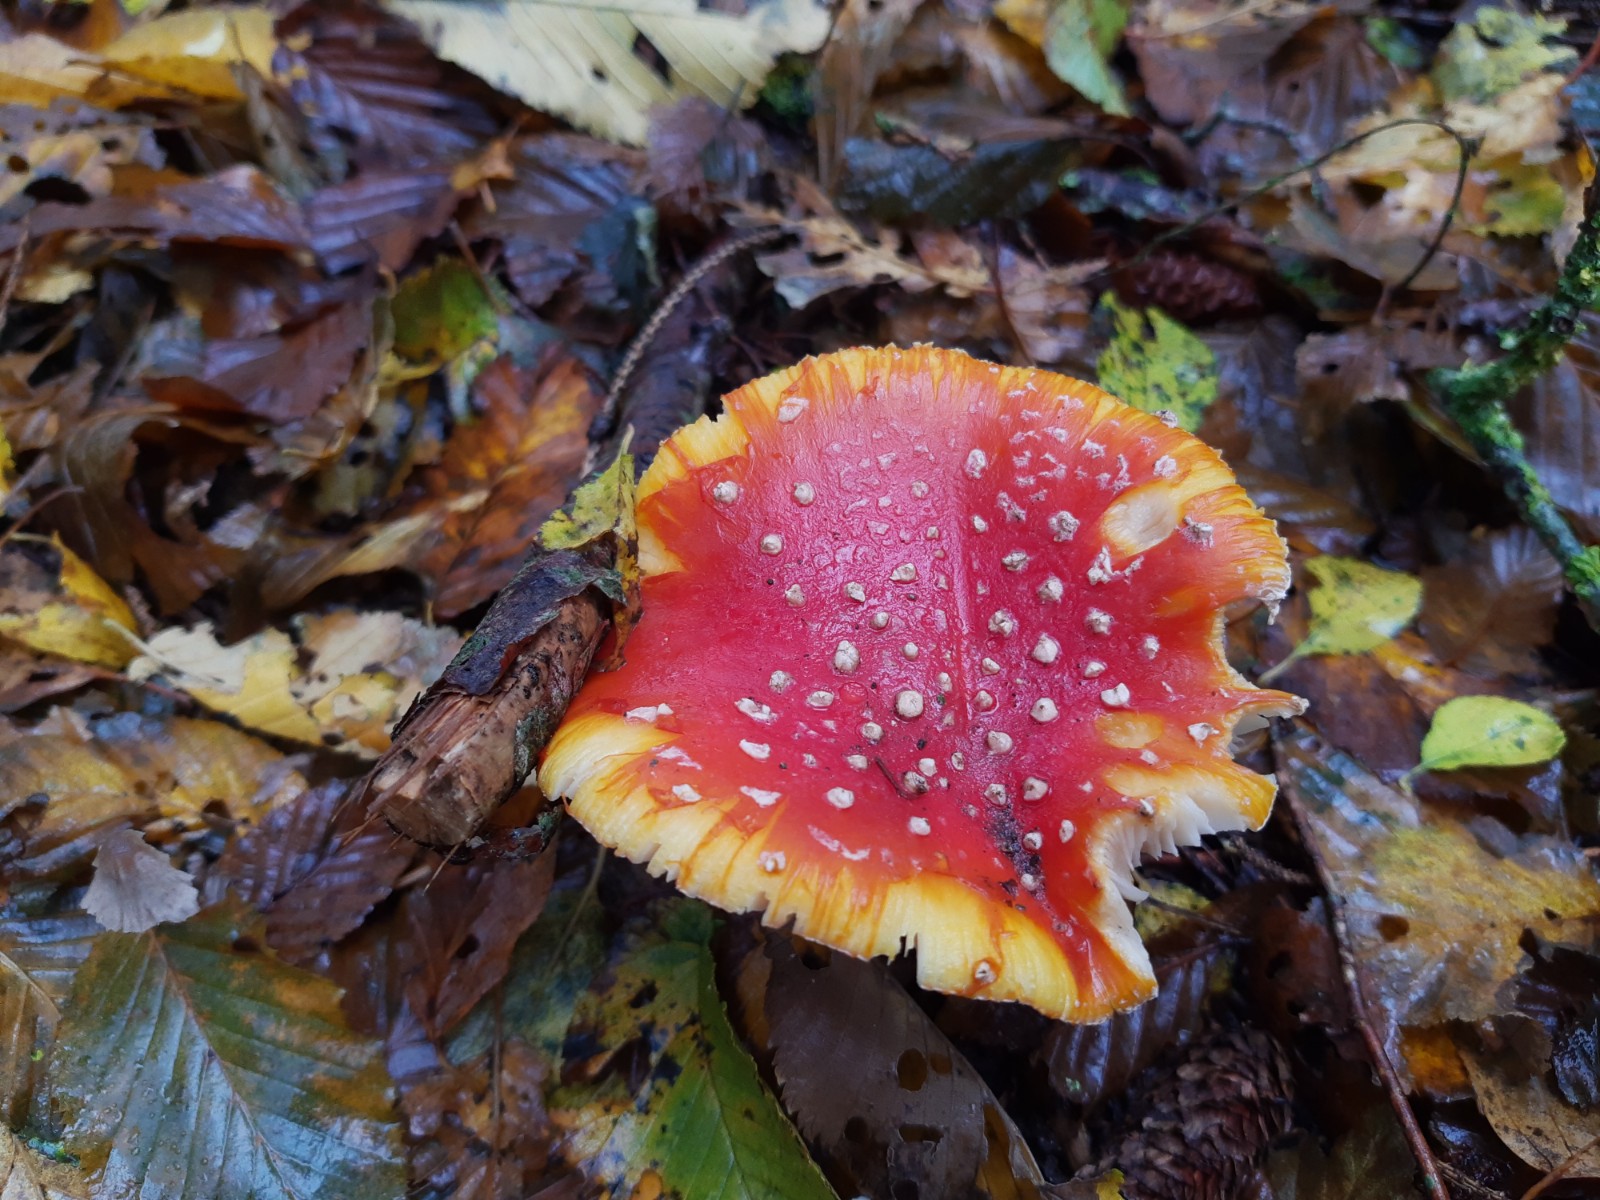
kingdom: Fungi
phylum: Basidiomycota
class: Agaricomycetes
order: Agaricales
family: Amanitaceae
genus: Amanita
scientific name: Amanita muscaria
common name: rød fluesvamp
